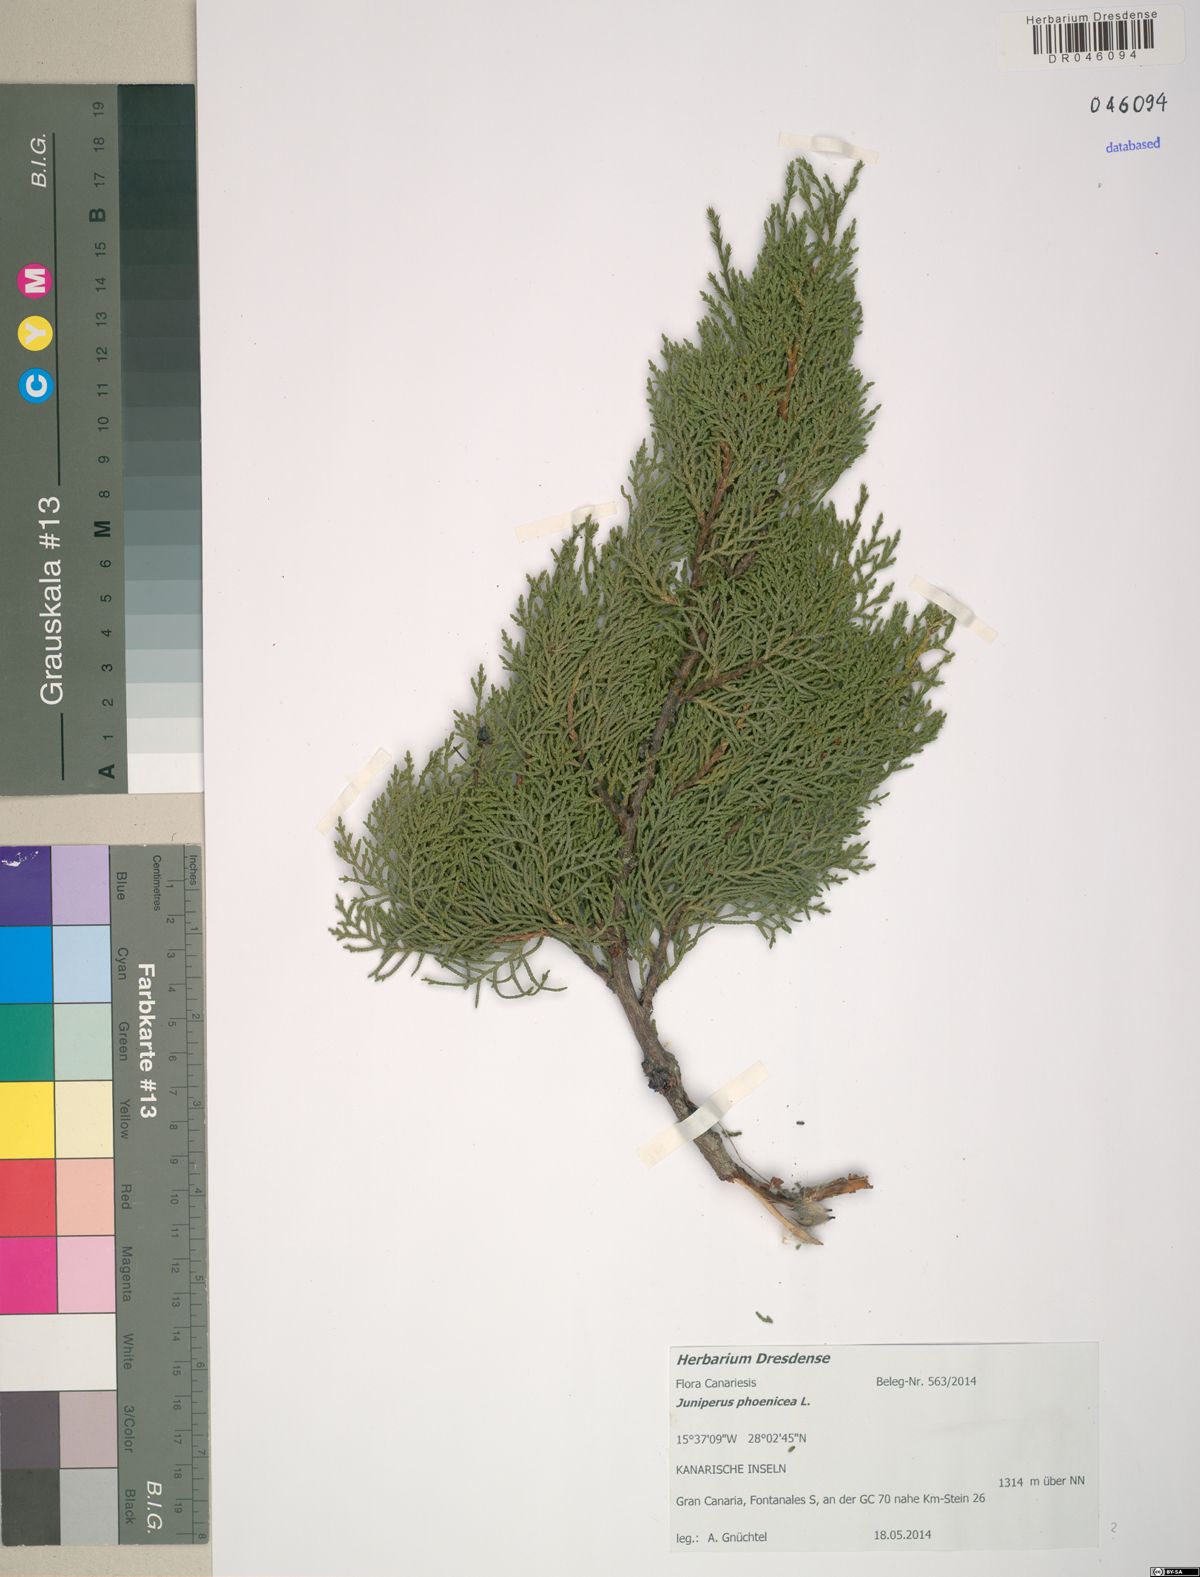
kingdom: Plantae
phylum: Tracheophyta
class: Pinopsida
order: Pinales
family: Cupressaceae
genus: Juniperus
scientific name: Juniperus phoenicea
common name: Phoenician juniper
